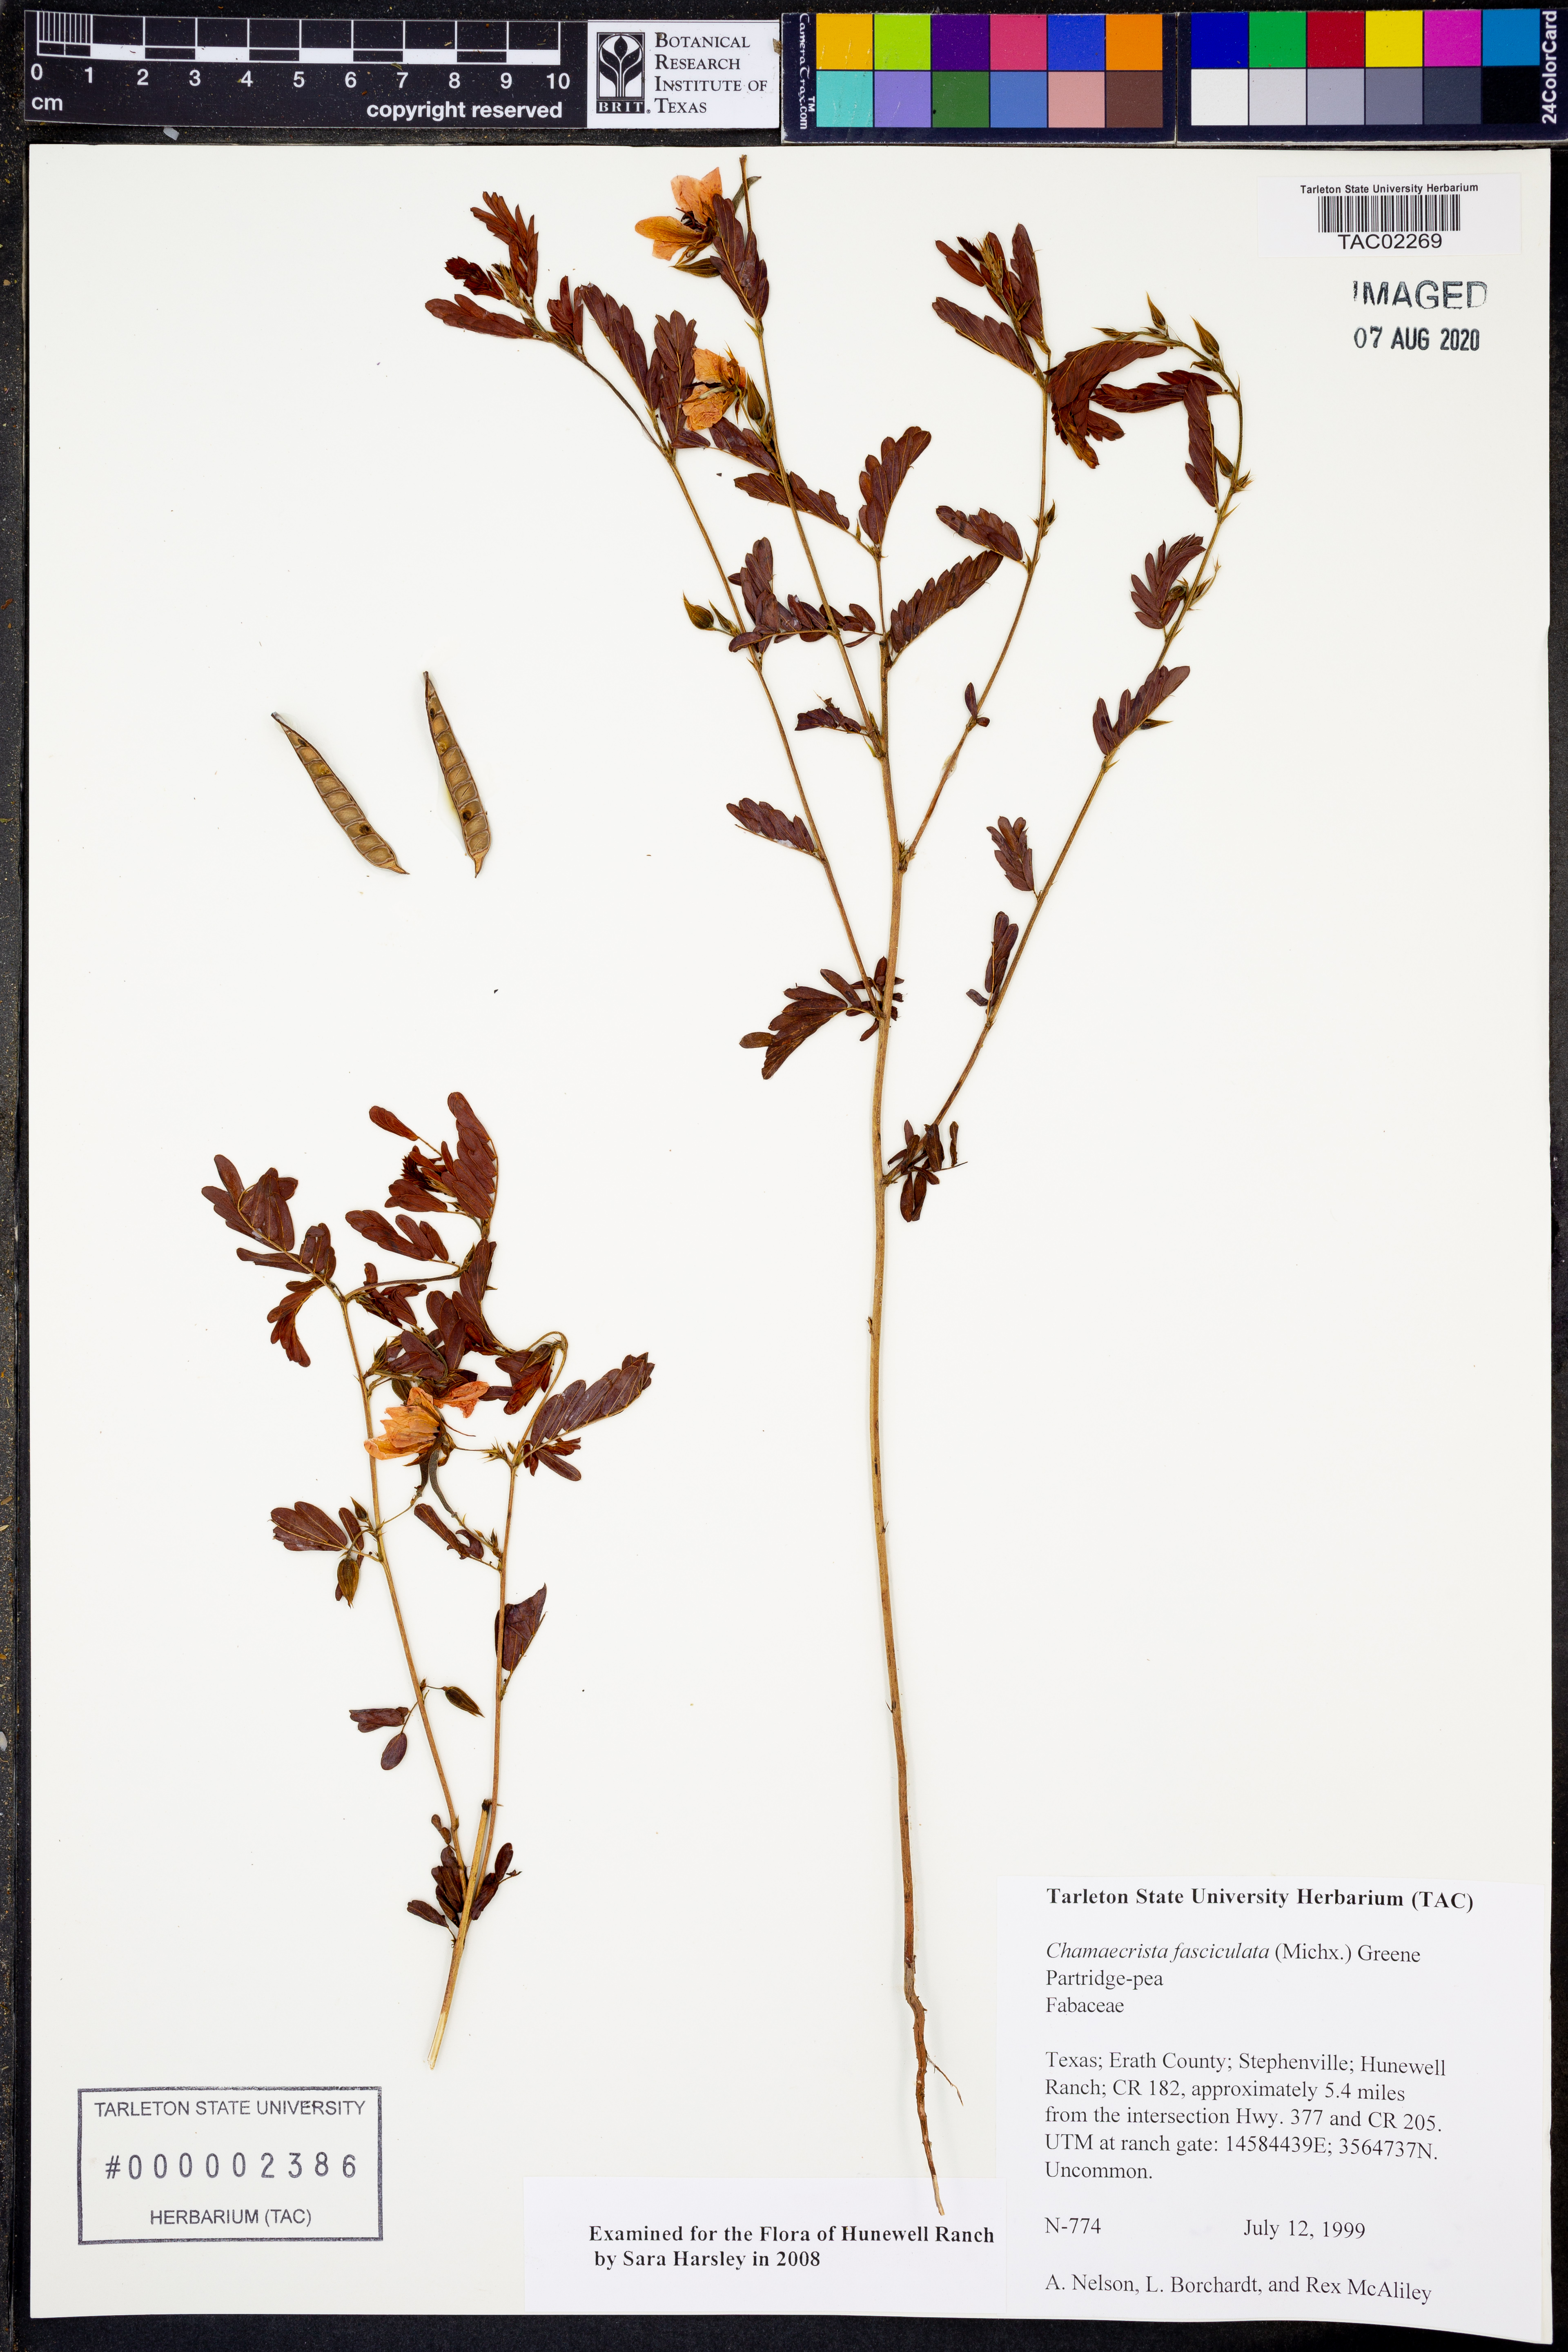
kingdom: Plantae
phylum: Tracheophyta
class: Magnoliopsida
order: Fabales
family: Fabaceae
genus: Chamaecrista
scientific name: Chamaecrista fasciculata
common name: Golden cassia
